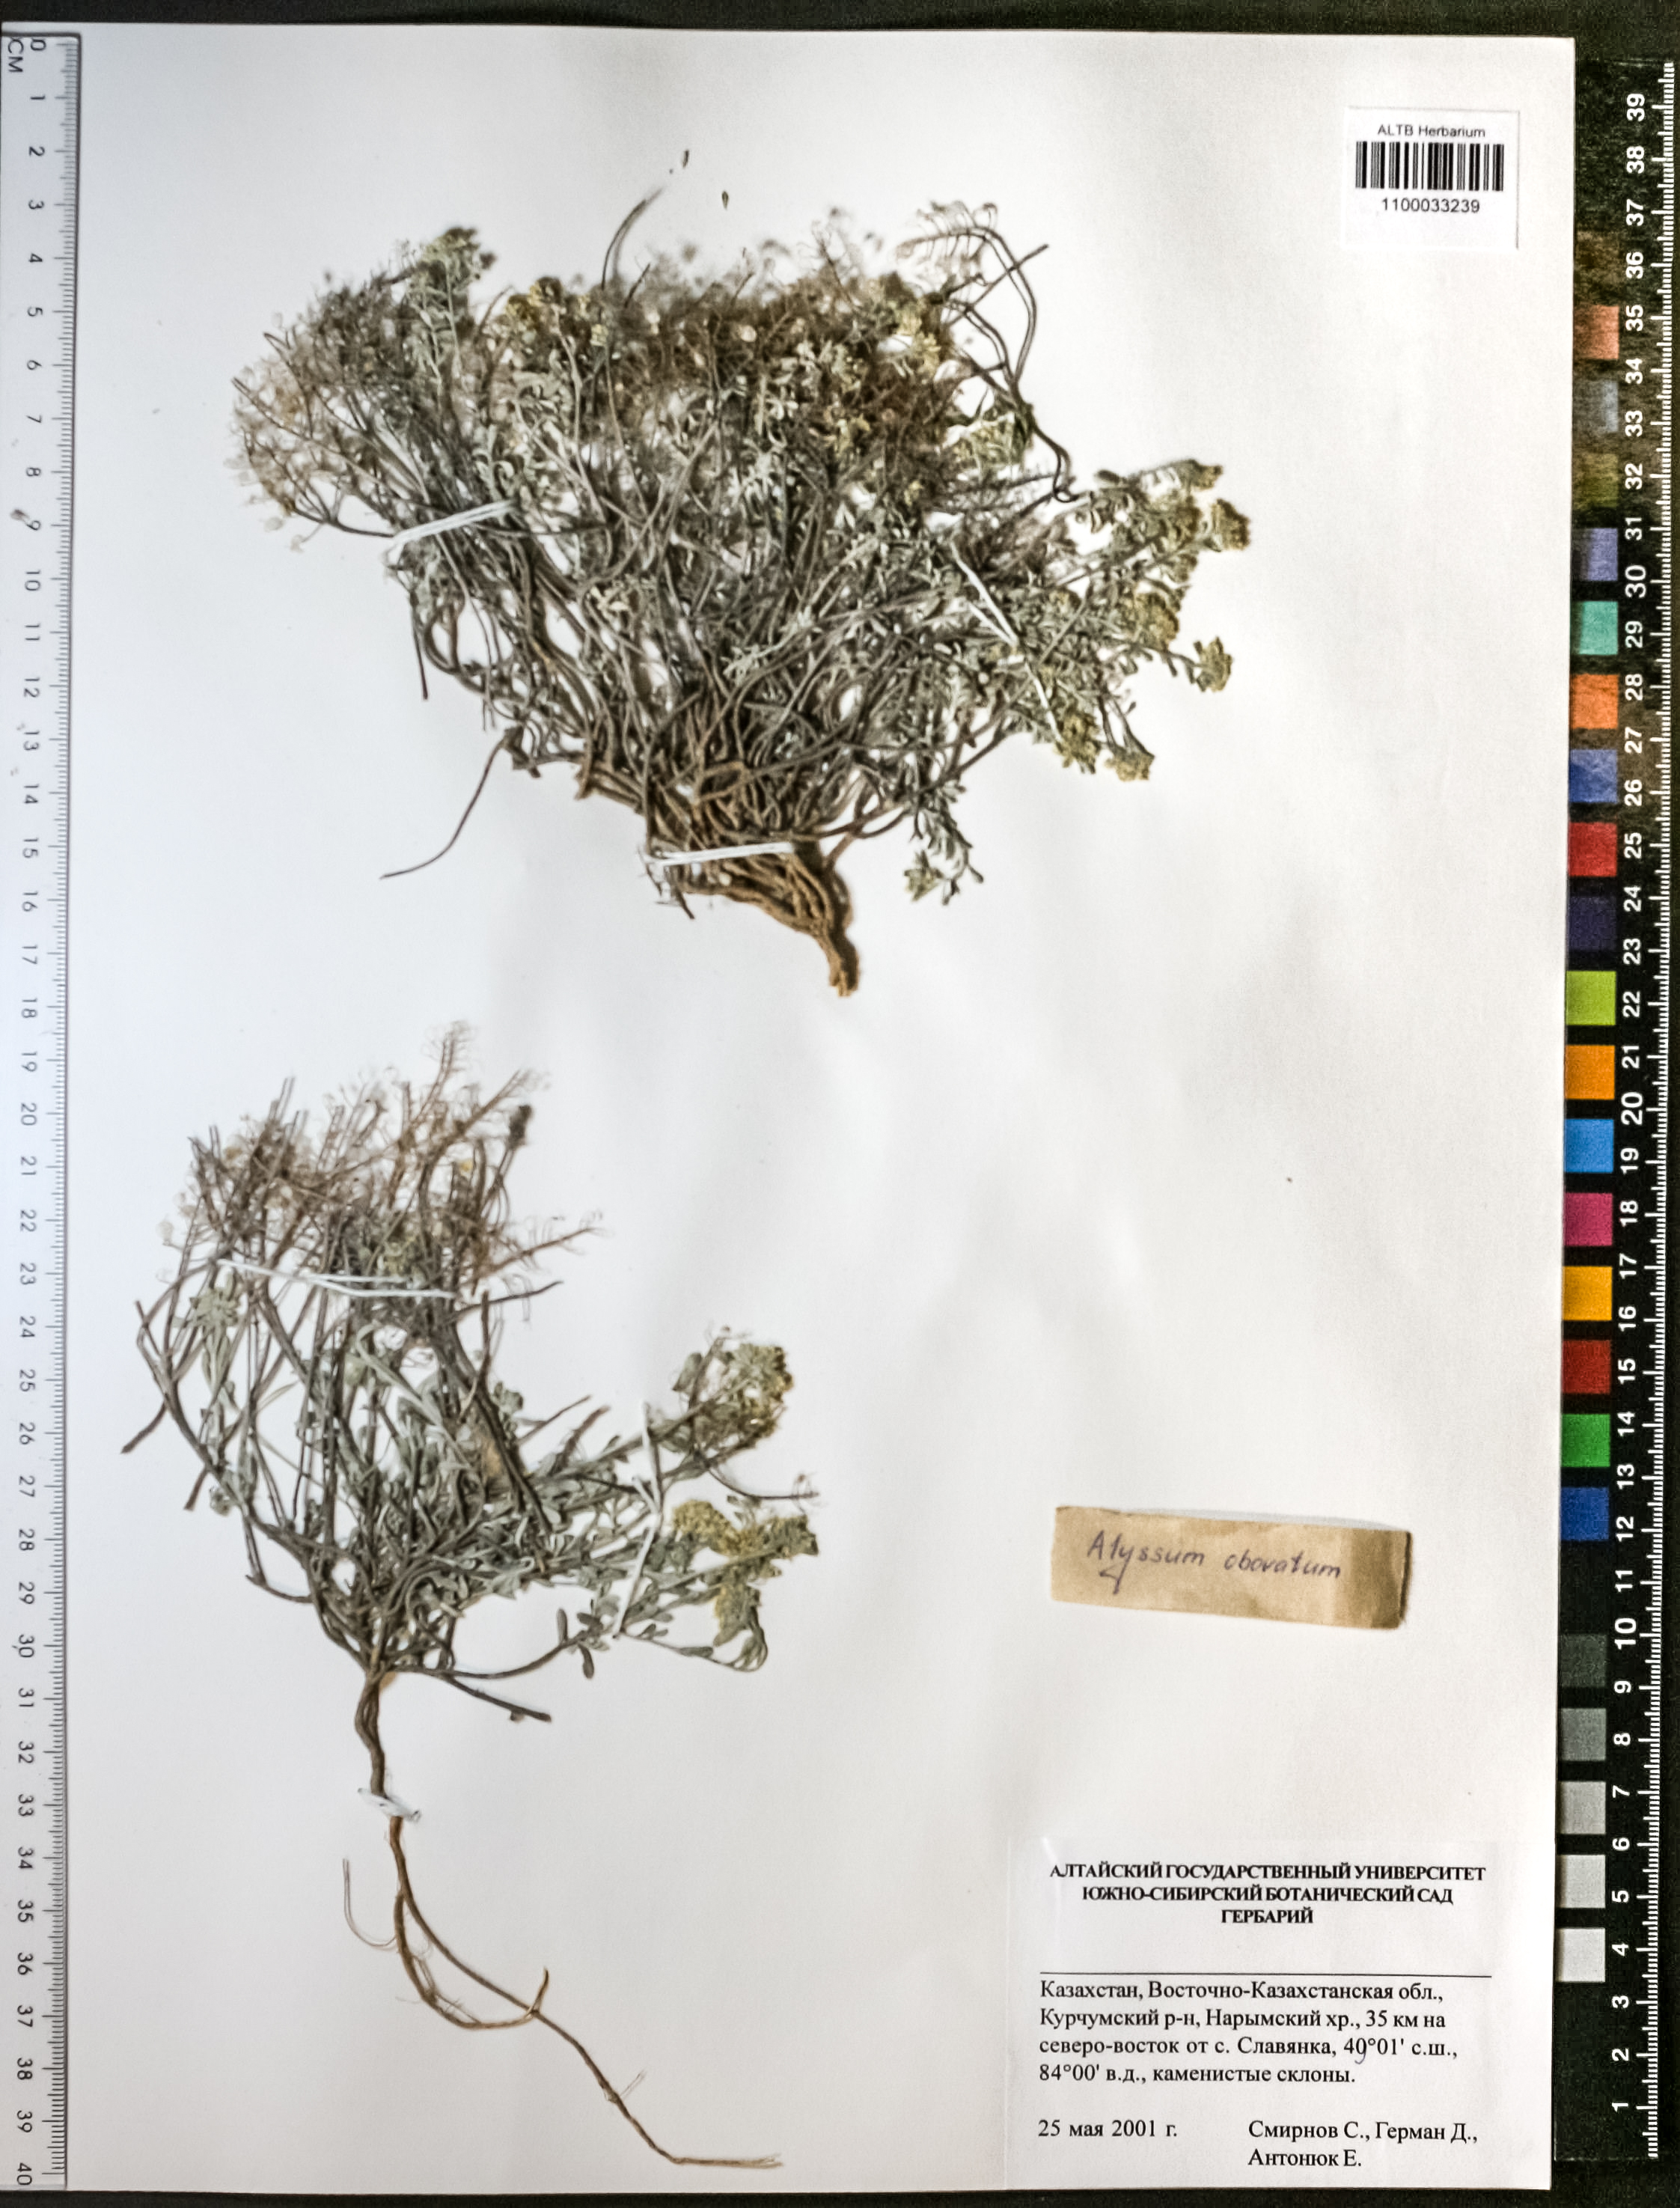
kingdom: Plantae
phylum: Tracheophyta
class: Magnoliopsida
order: Brassicales
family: Brassicaceae
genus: Odontarrhena
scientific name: Odontarrhena obovata
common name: American alyssum
